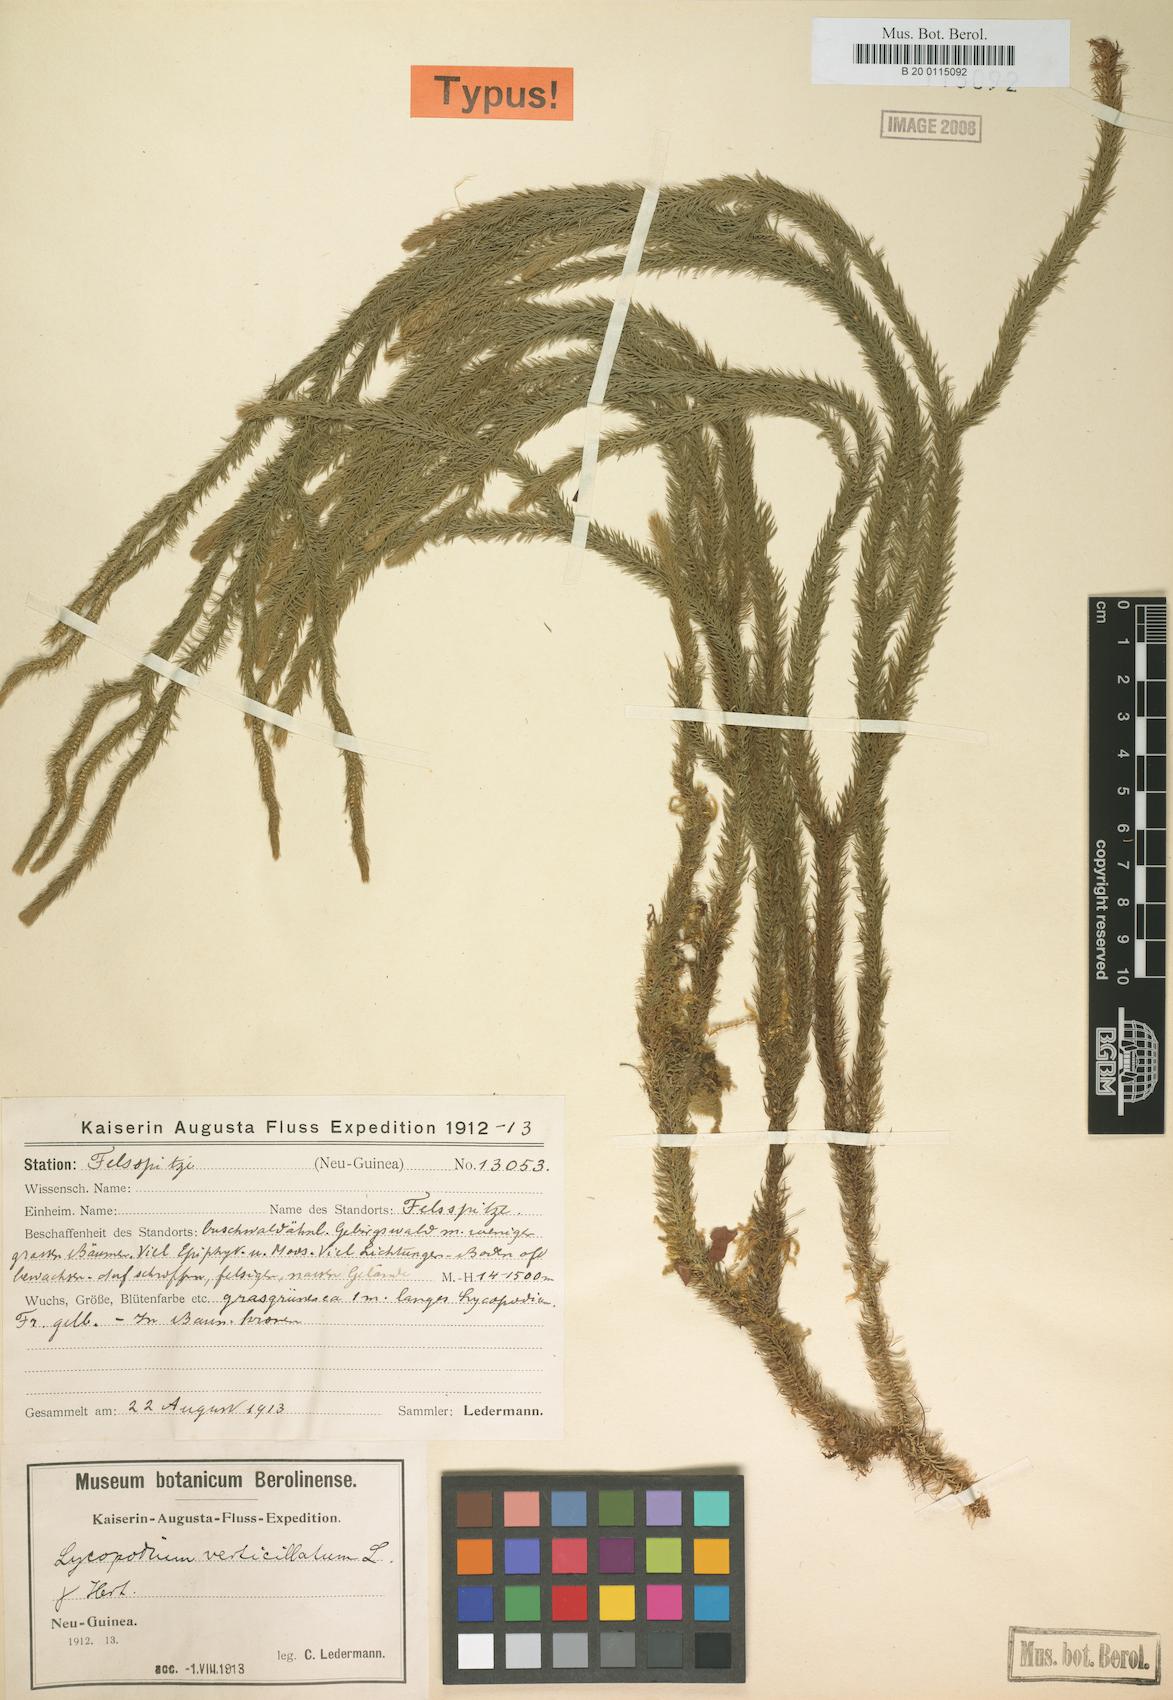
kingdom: Plantae
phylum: Tracheophyta
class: Lycopodiopsida
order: Lycopodiales
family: Lycopodiaceae
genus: Phlegmariurus
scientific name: Phlegmariurus verticillatus
